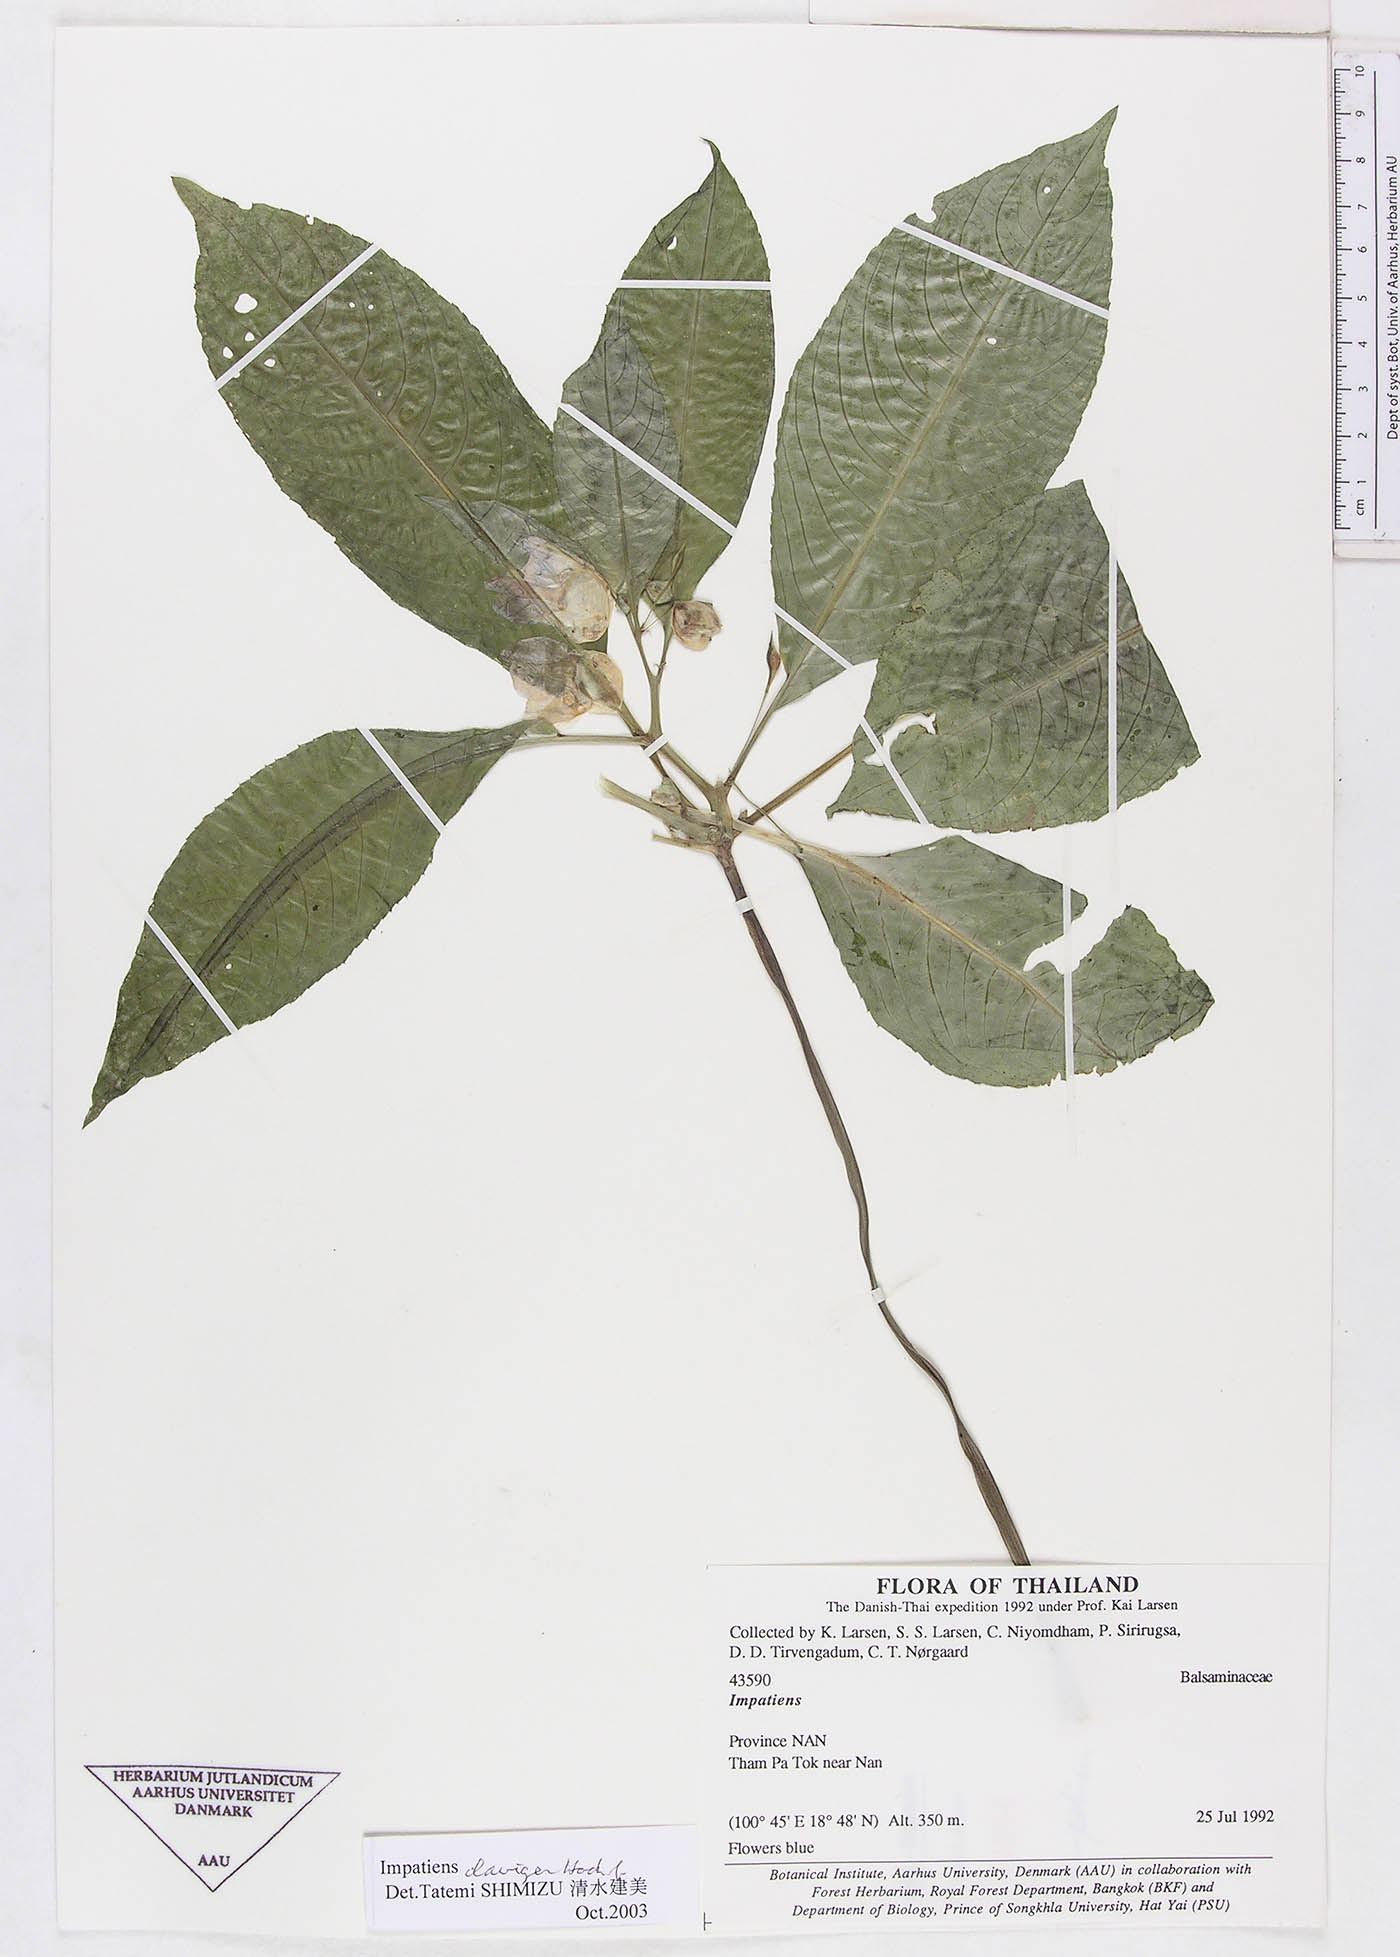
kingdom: Plantae
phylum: Tracheophyta
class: Magnoliopsida
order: Ericales
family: Balsaminaceae
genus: Impatiens
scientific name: Impatiens harmandii
